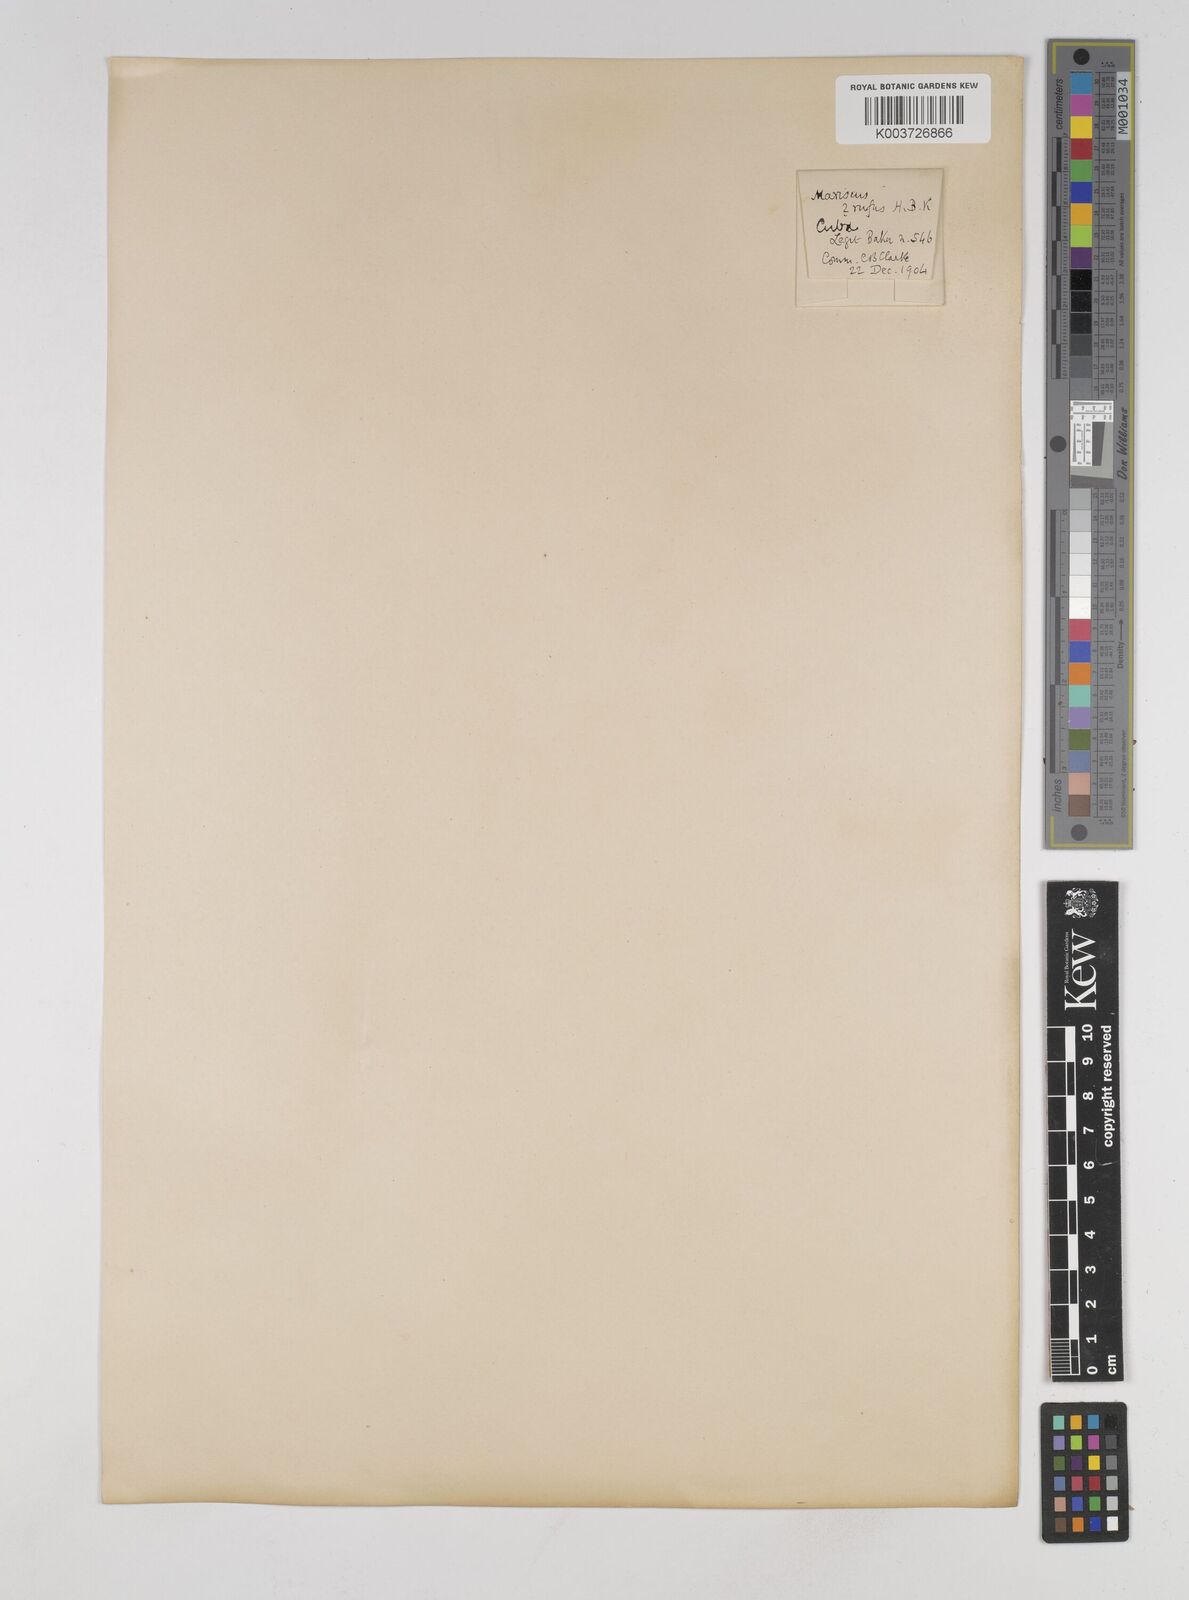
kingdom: Plantae
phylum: Tracheophyta
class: Liliopsida
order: Poales
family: Cyperaceae
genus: Cyperus
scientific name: Cyperus ligularis
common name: Swamp flat sedge
